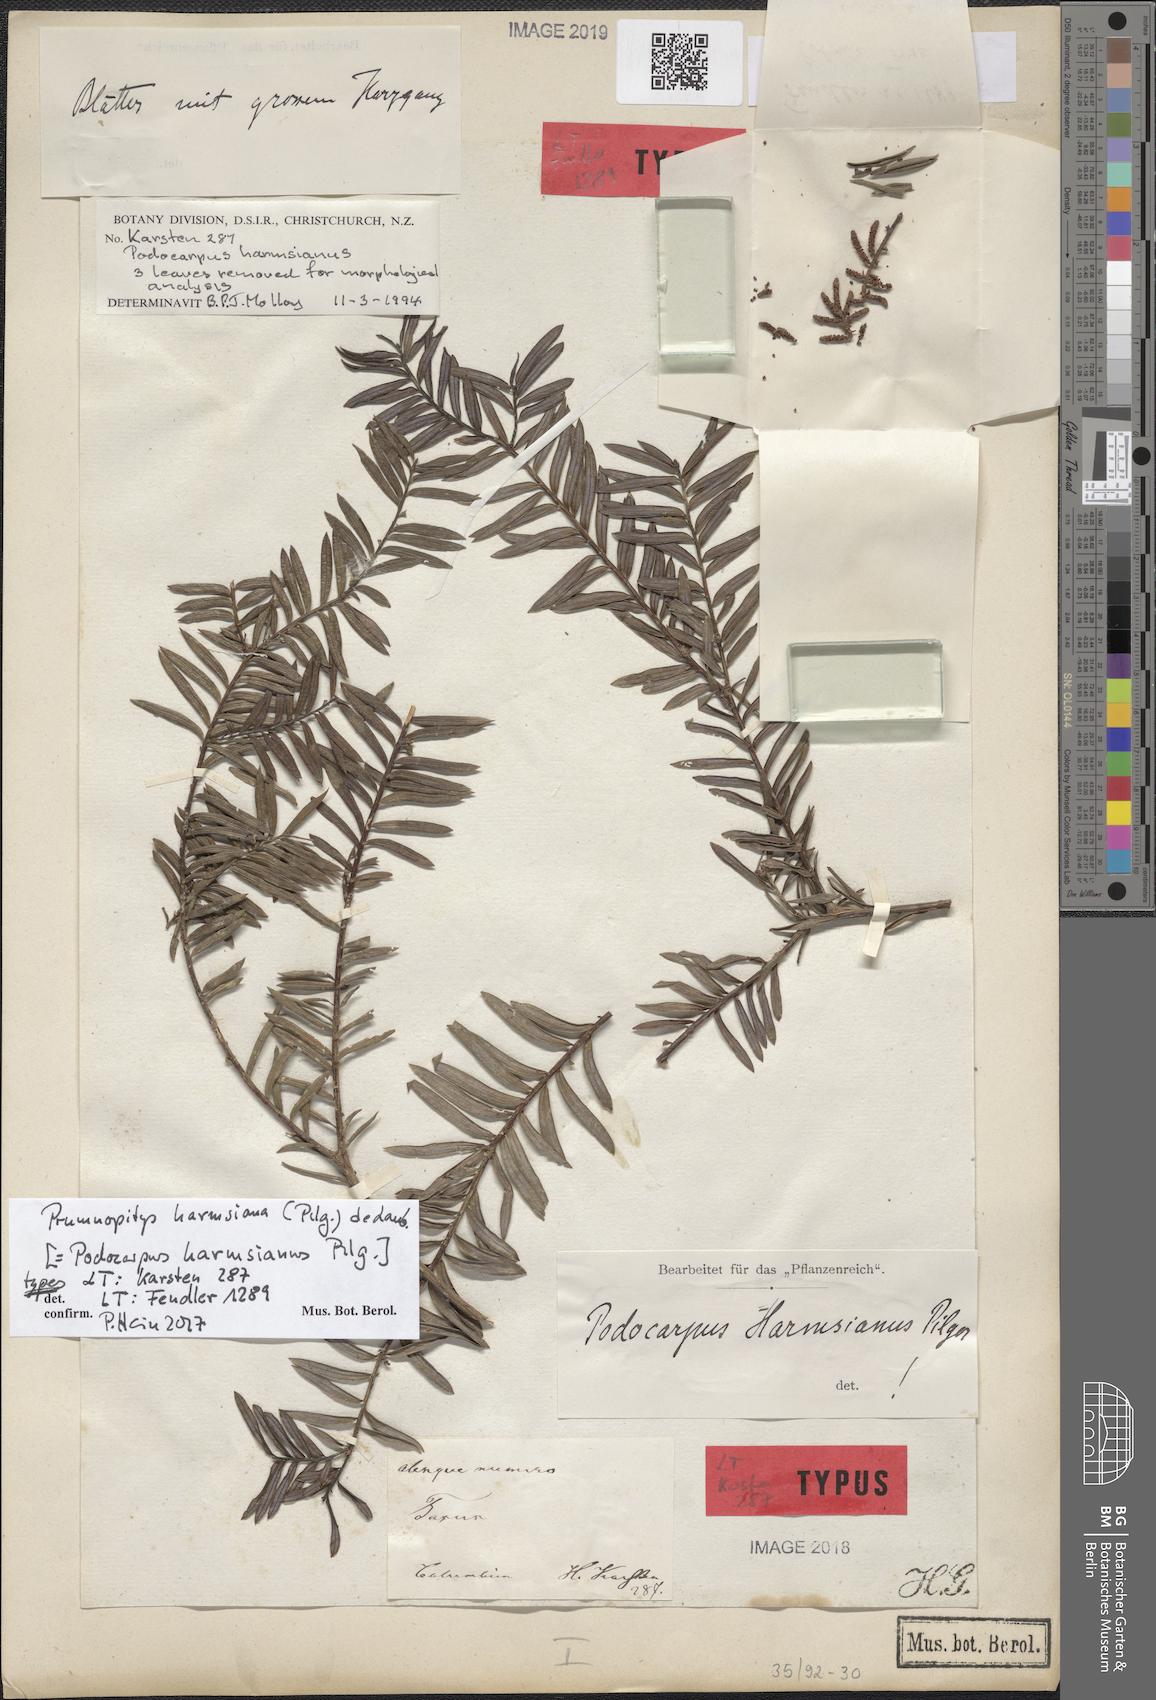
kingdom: Plantae
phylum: Tracheophyta
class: Pinopsida
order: Pinales
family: Podocarpaceae
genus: Prumnopitys
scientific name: Prumnopitys harmsiana
